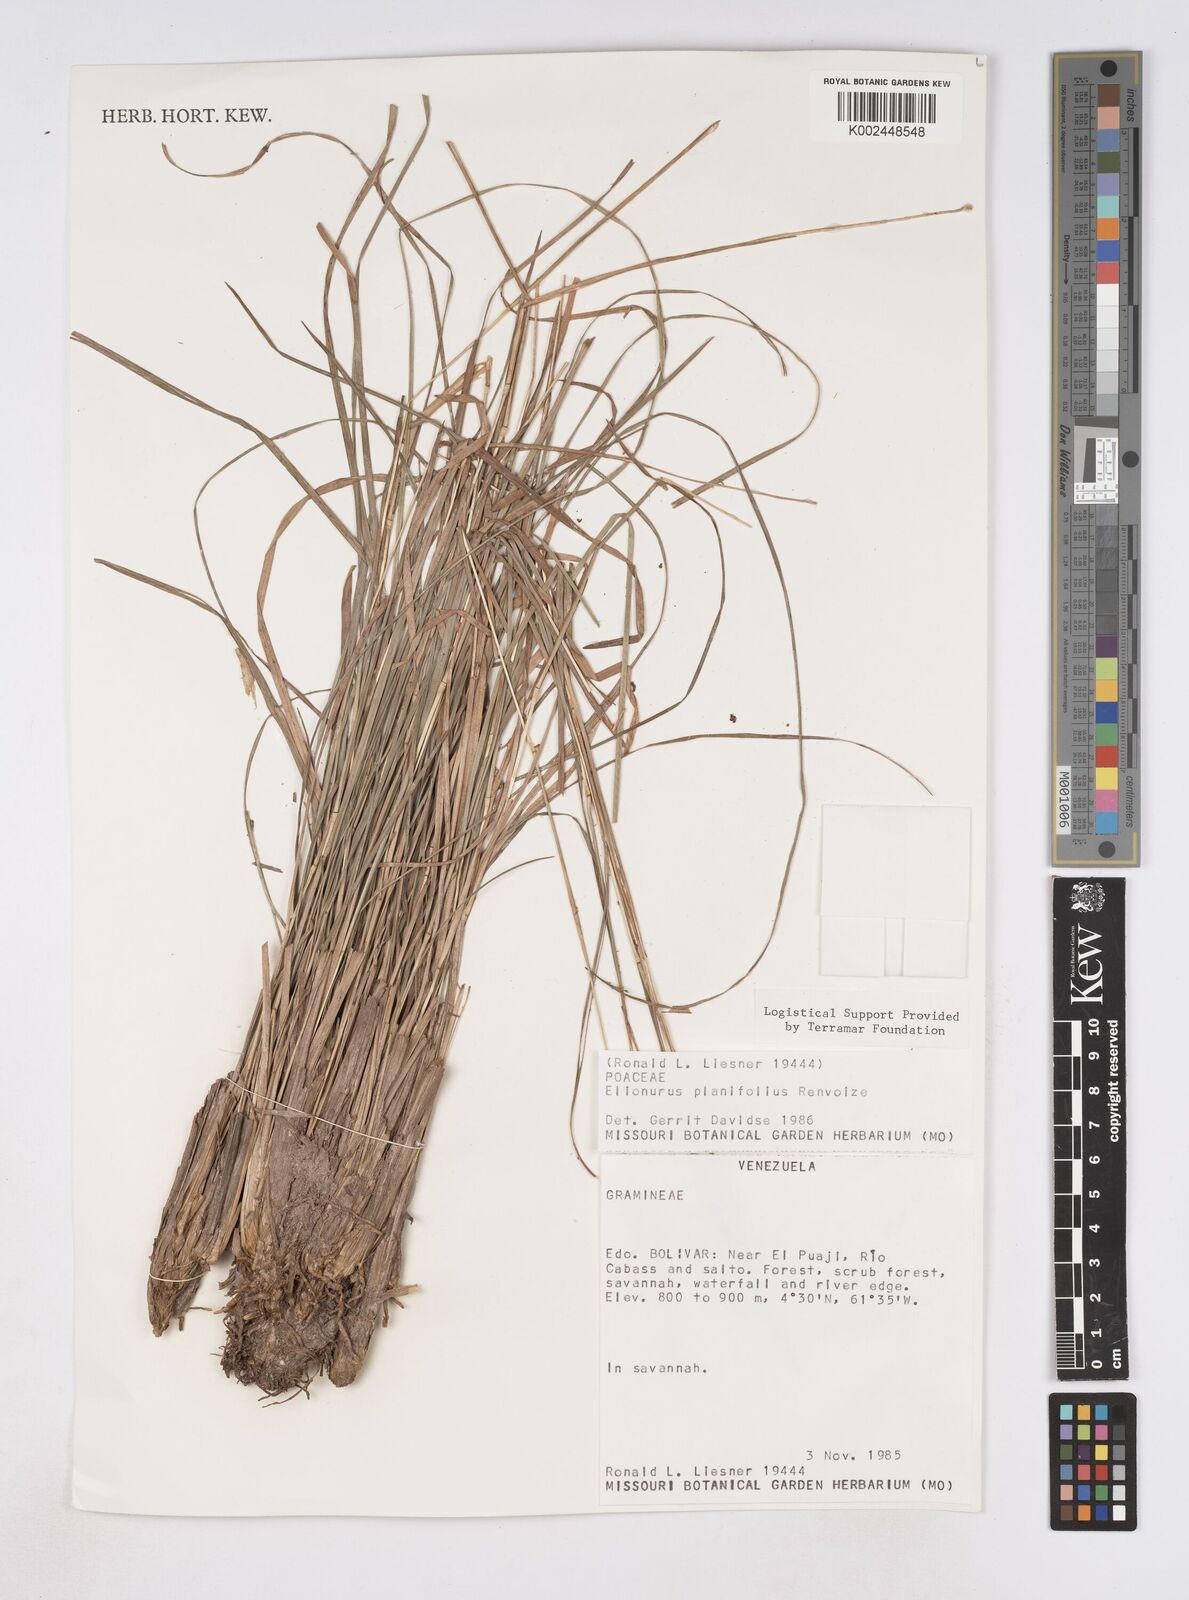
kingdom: Plantae
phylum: Tracheophyta
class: Liliopsida
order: Poales
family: Poaceae
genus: Elionurus
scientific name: Elionurus planifolius
